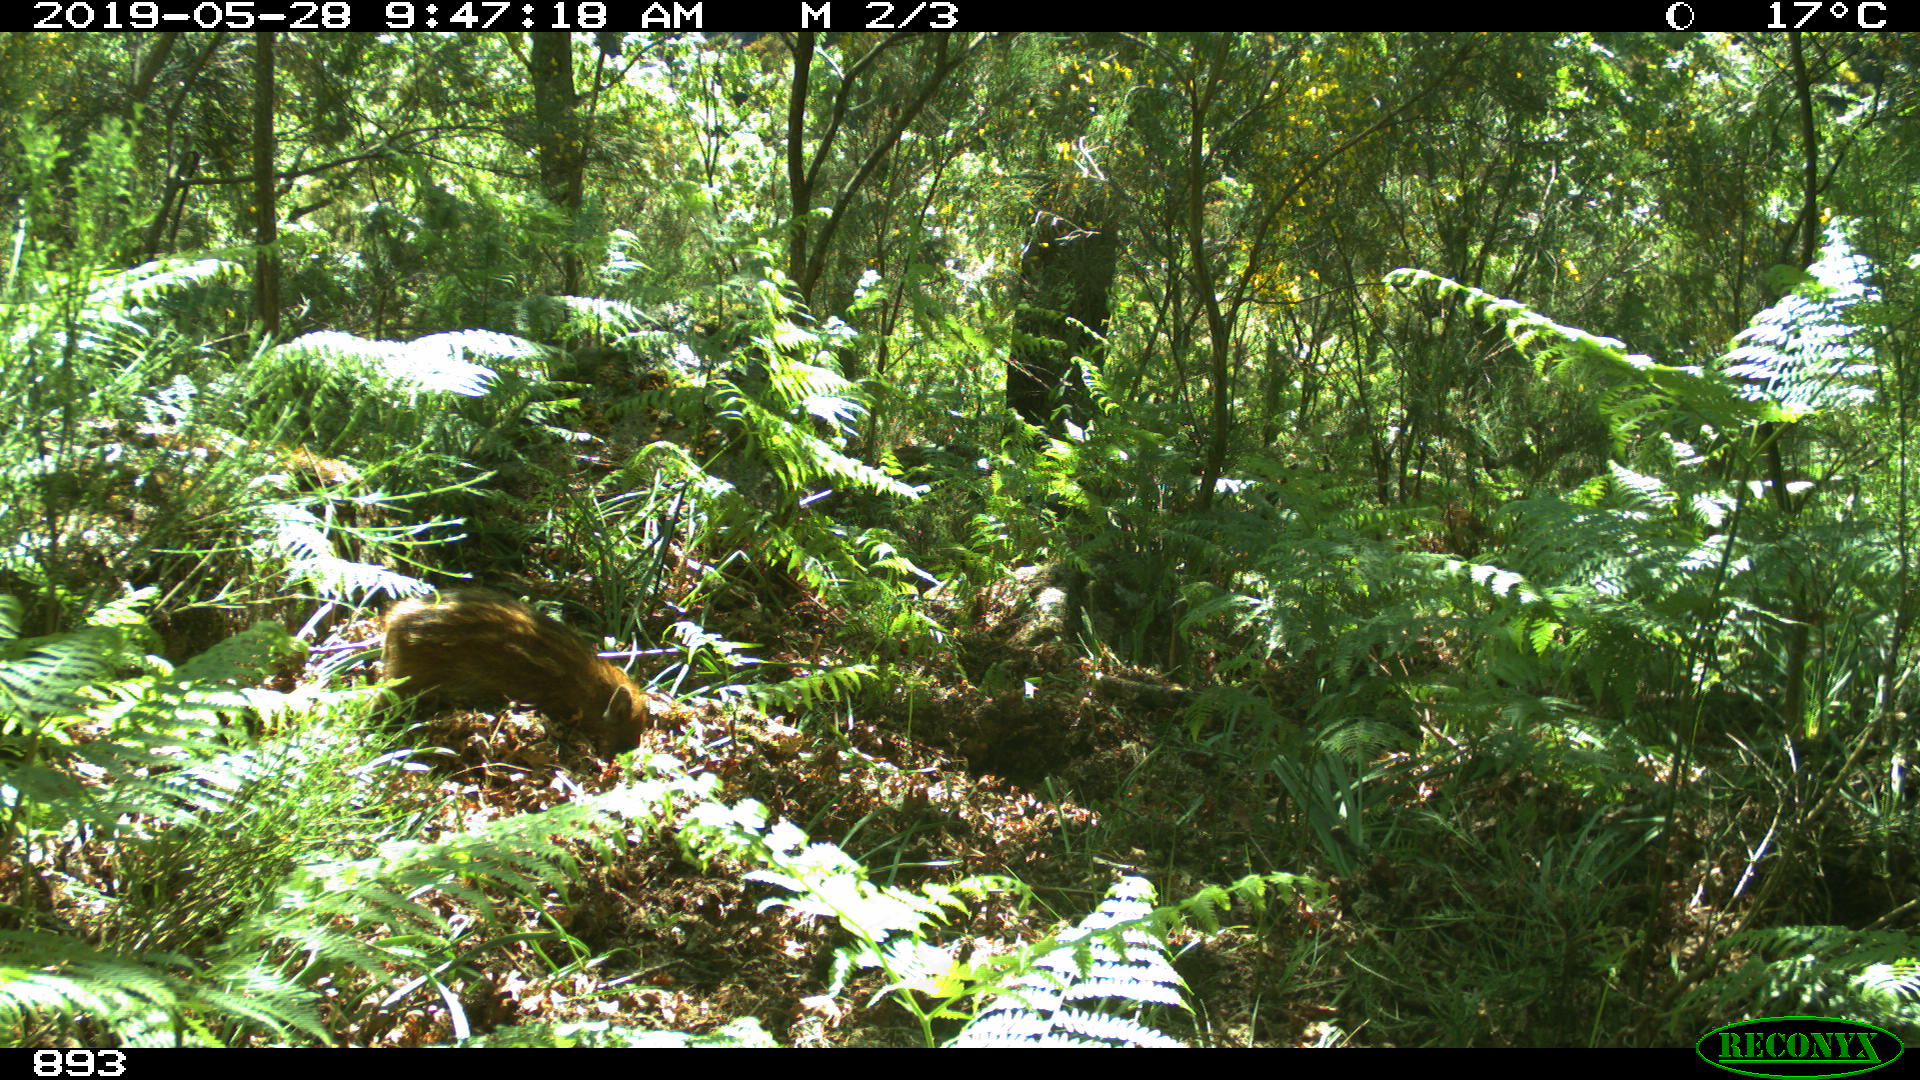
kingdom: Animalia
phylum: Chordata
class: Mammalia
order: Artiodactyla
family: Suidae
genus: Sus
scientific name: Sus scrofa
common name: Wild boar
